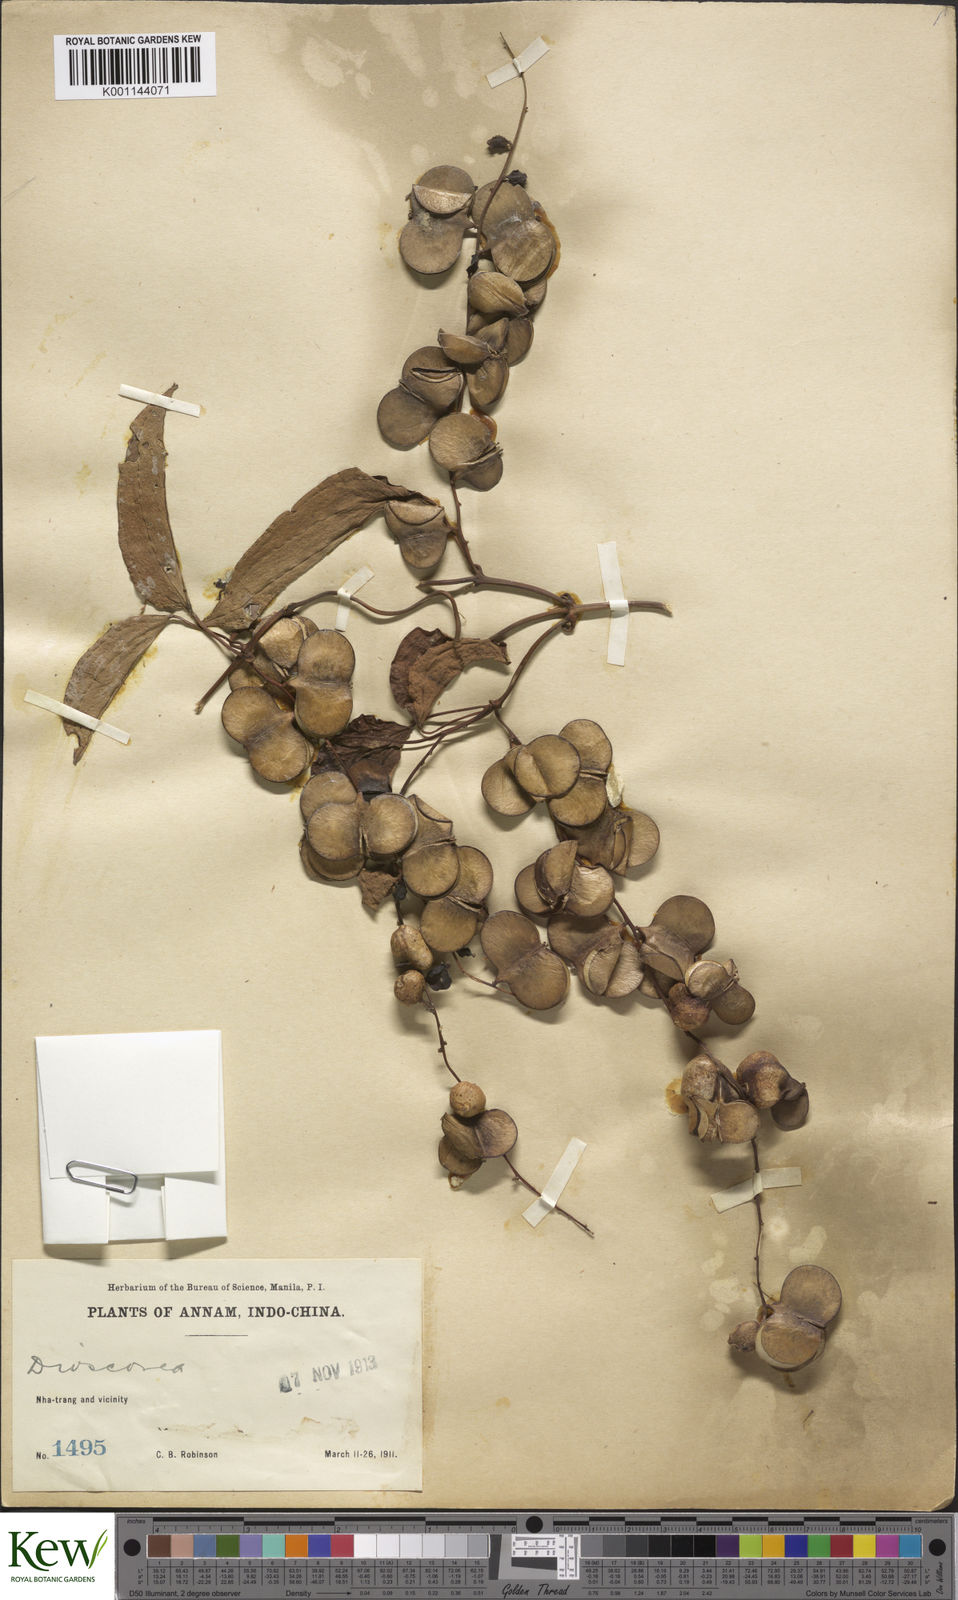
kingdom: Plantae
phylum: Tracheophyta
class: Liliopsida
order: Dioscoreales
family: Dioscoreaceae
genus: Dioscorea
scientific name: Dioscorea glabra
